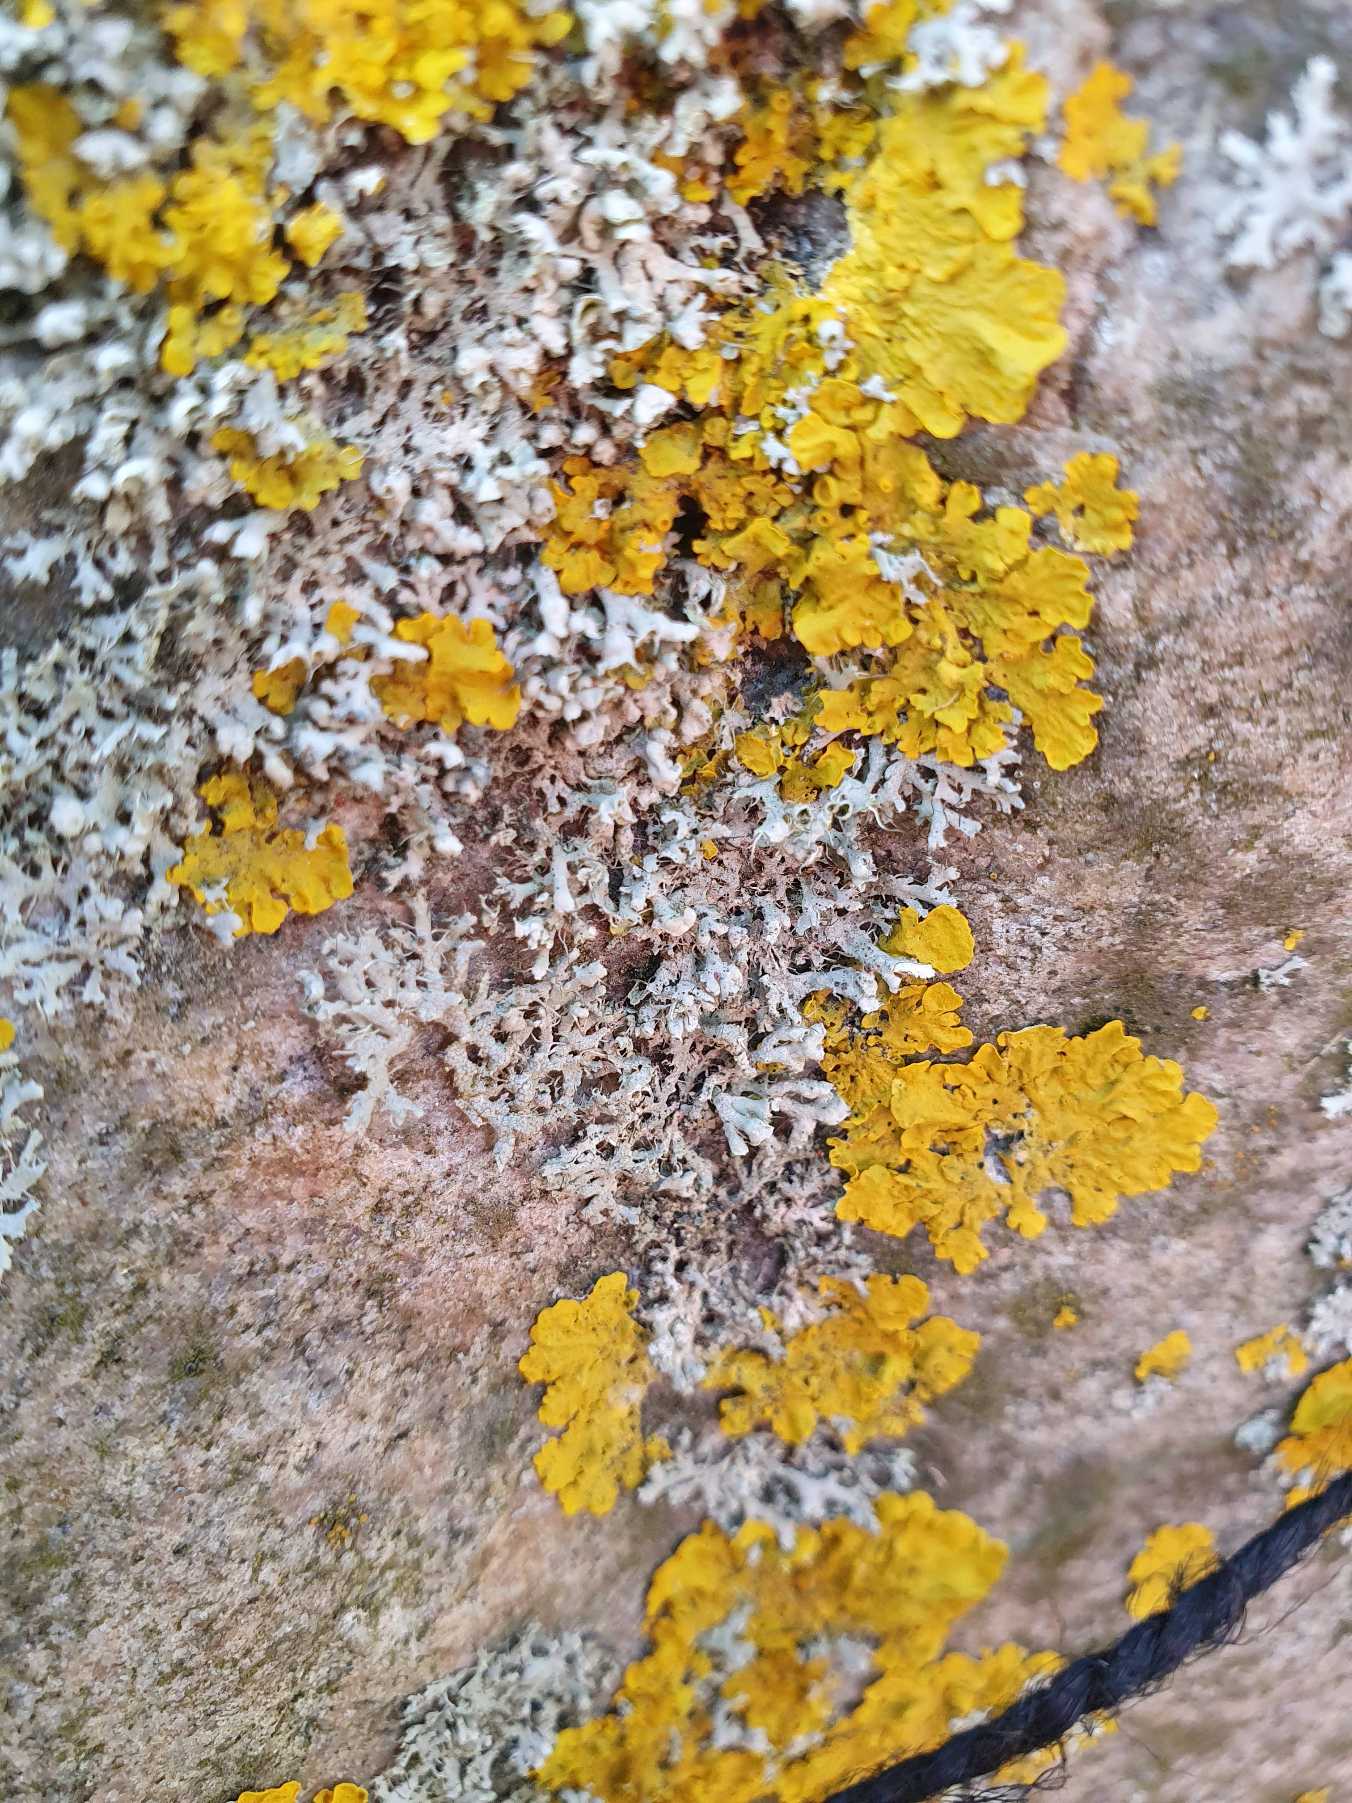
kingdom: Fungi
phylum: Ascomycota
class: Lecanoromycetes
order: Teloschistales
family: Teloschistaceae
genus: Xanthoria
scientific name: Xanthoria parietina
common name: Almindelig væggelav
